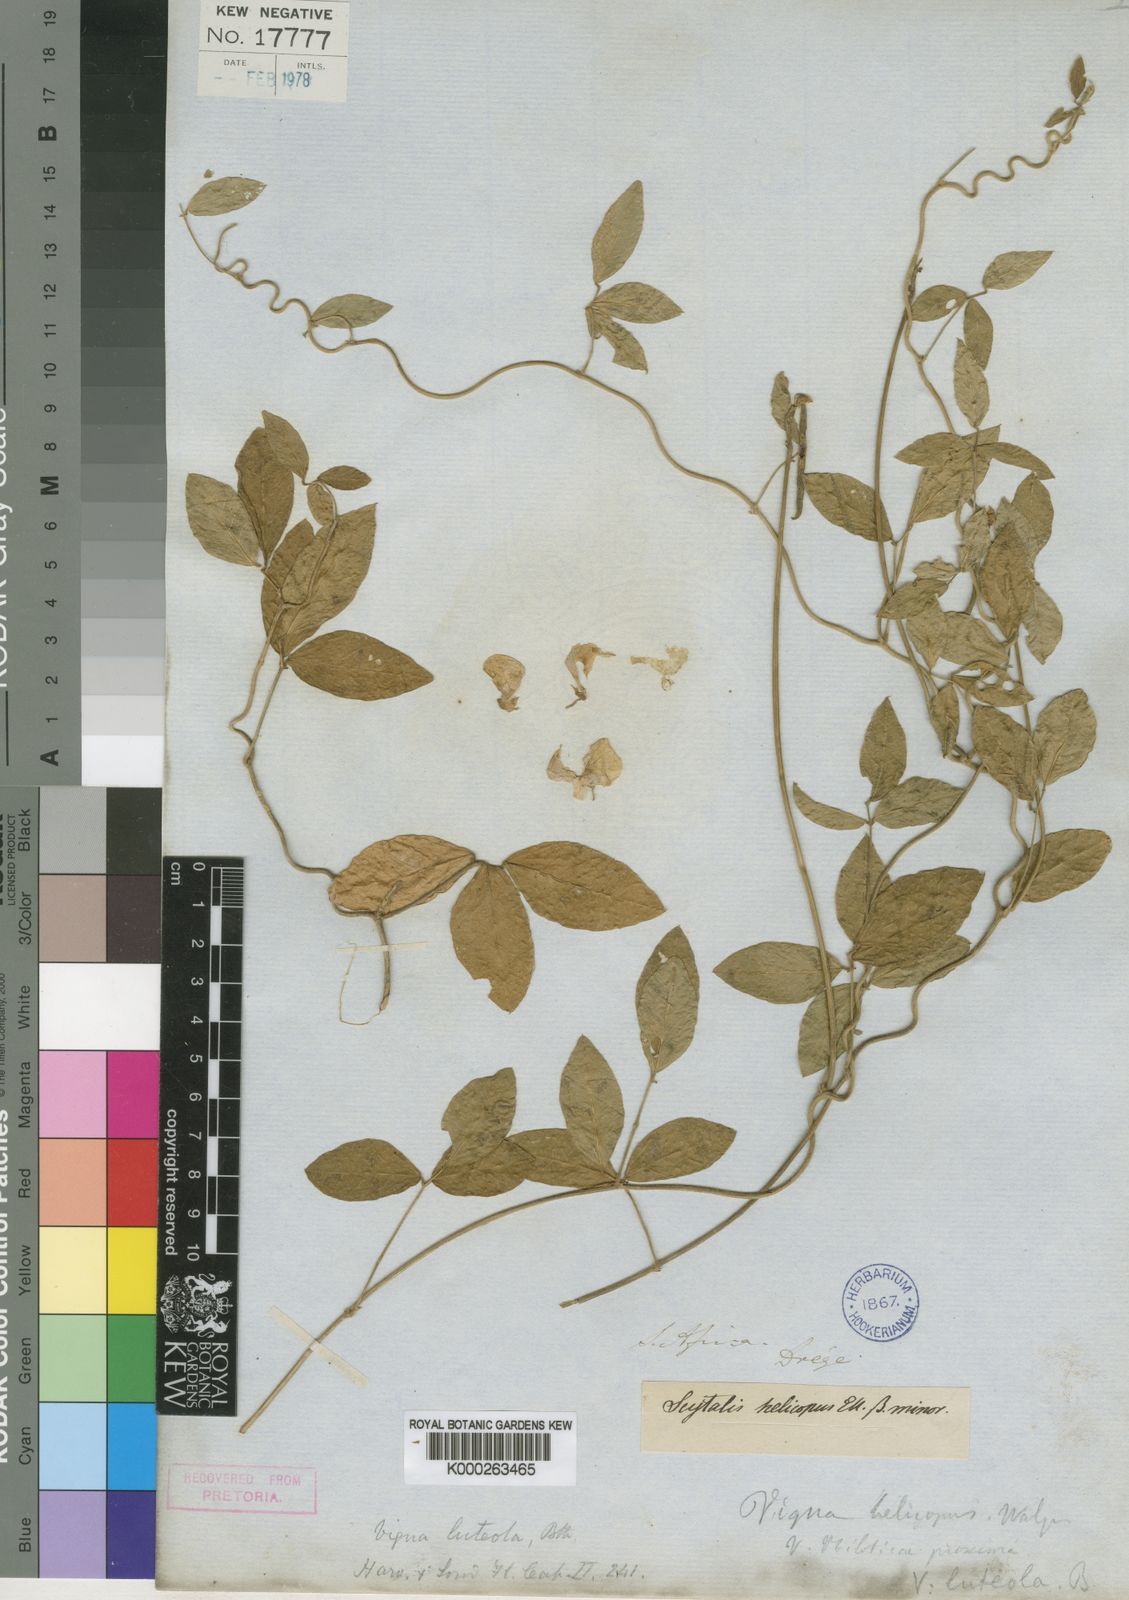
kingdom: Plantae
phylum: Tracheophyta
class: Magnoliopsida
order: Fabales
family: Fabaceae
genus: Vigna
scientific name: Vigna luteola
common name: Hairypod cowpea
